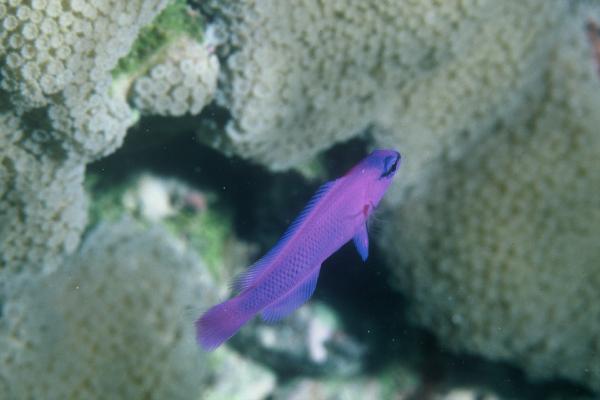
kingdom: Animalia
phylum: Chordata
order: Perciformes
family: Pseudochromidae
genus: Pseudochromis
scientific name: Pseudochromis fridmani
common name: Orchid dottyback
